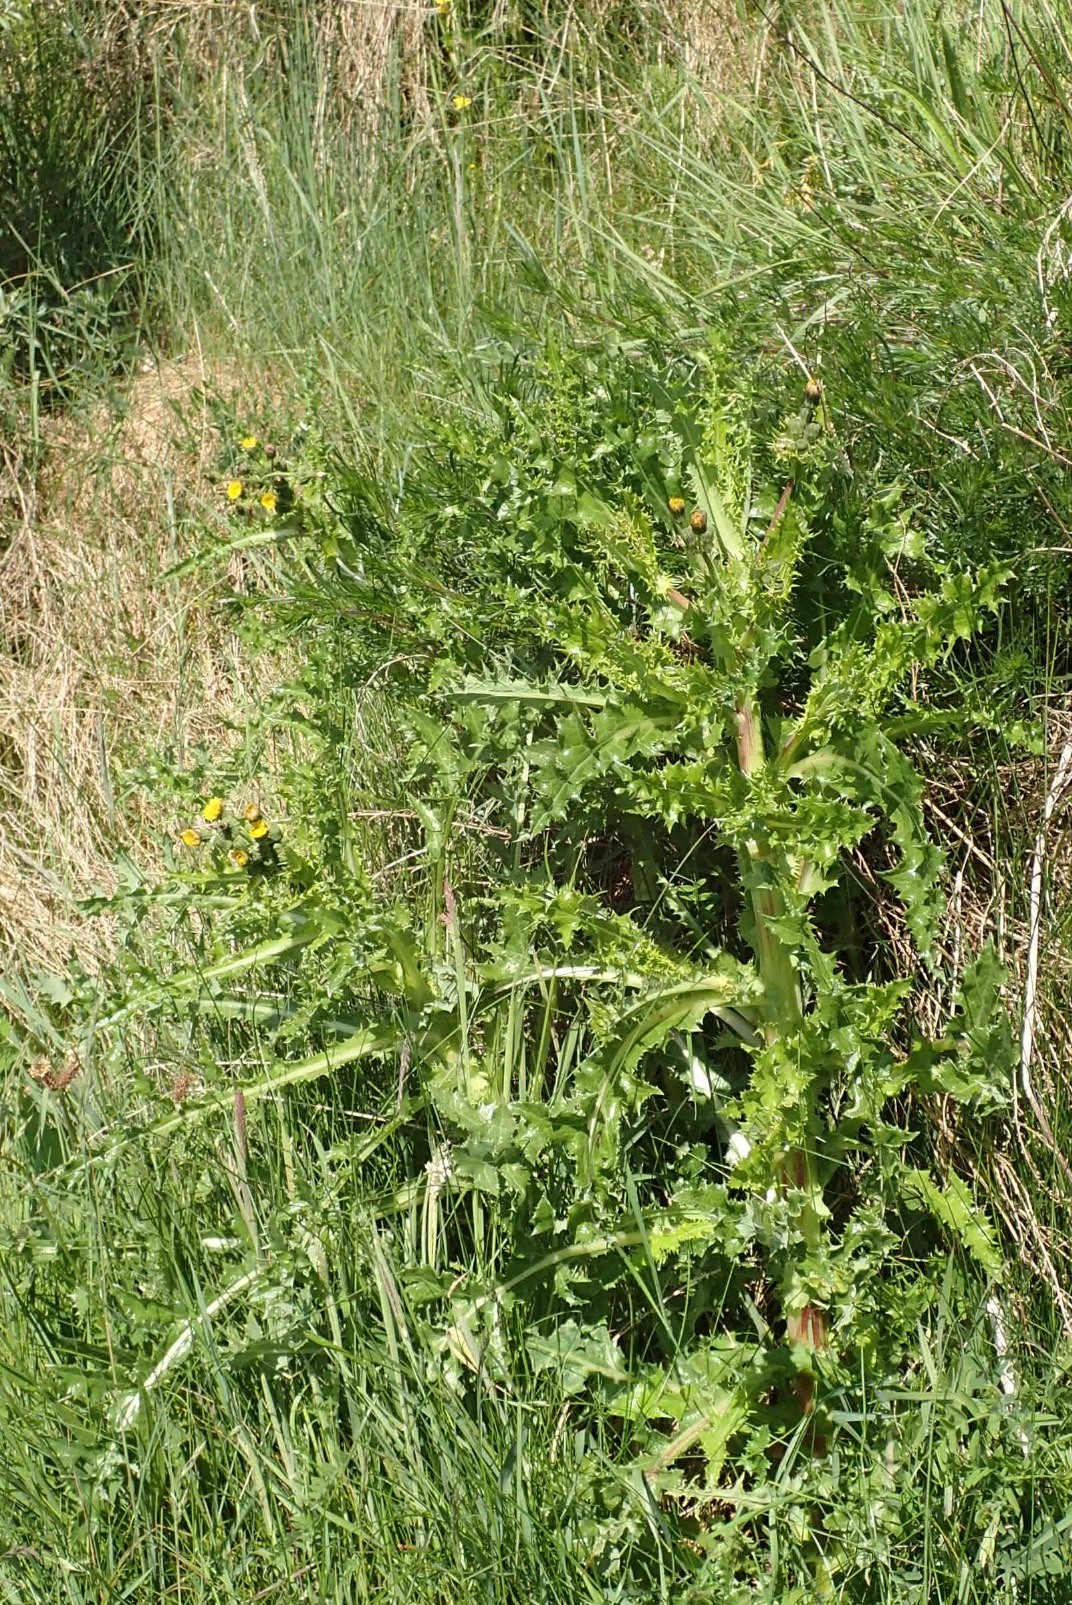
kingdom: Plantae
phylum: Tracheophyta
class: Magnoliopsida
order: Asterales
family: Asteraceae
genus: Sonchus
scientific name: Sonchus asper
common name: Ru svinemælk
